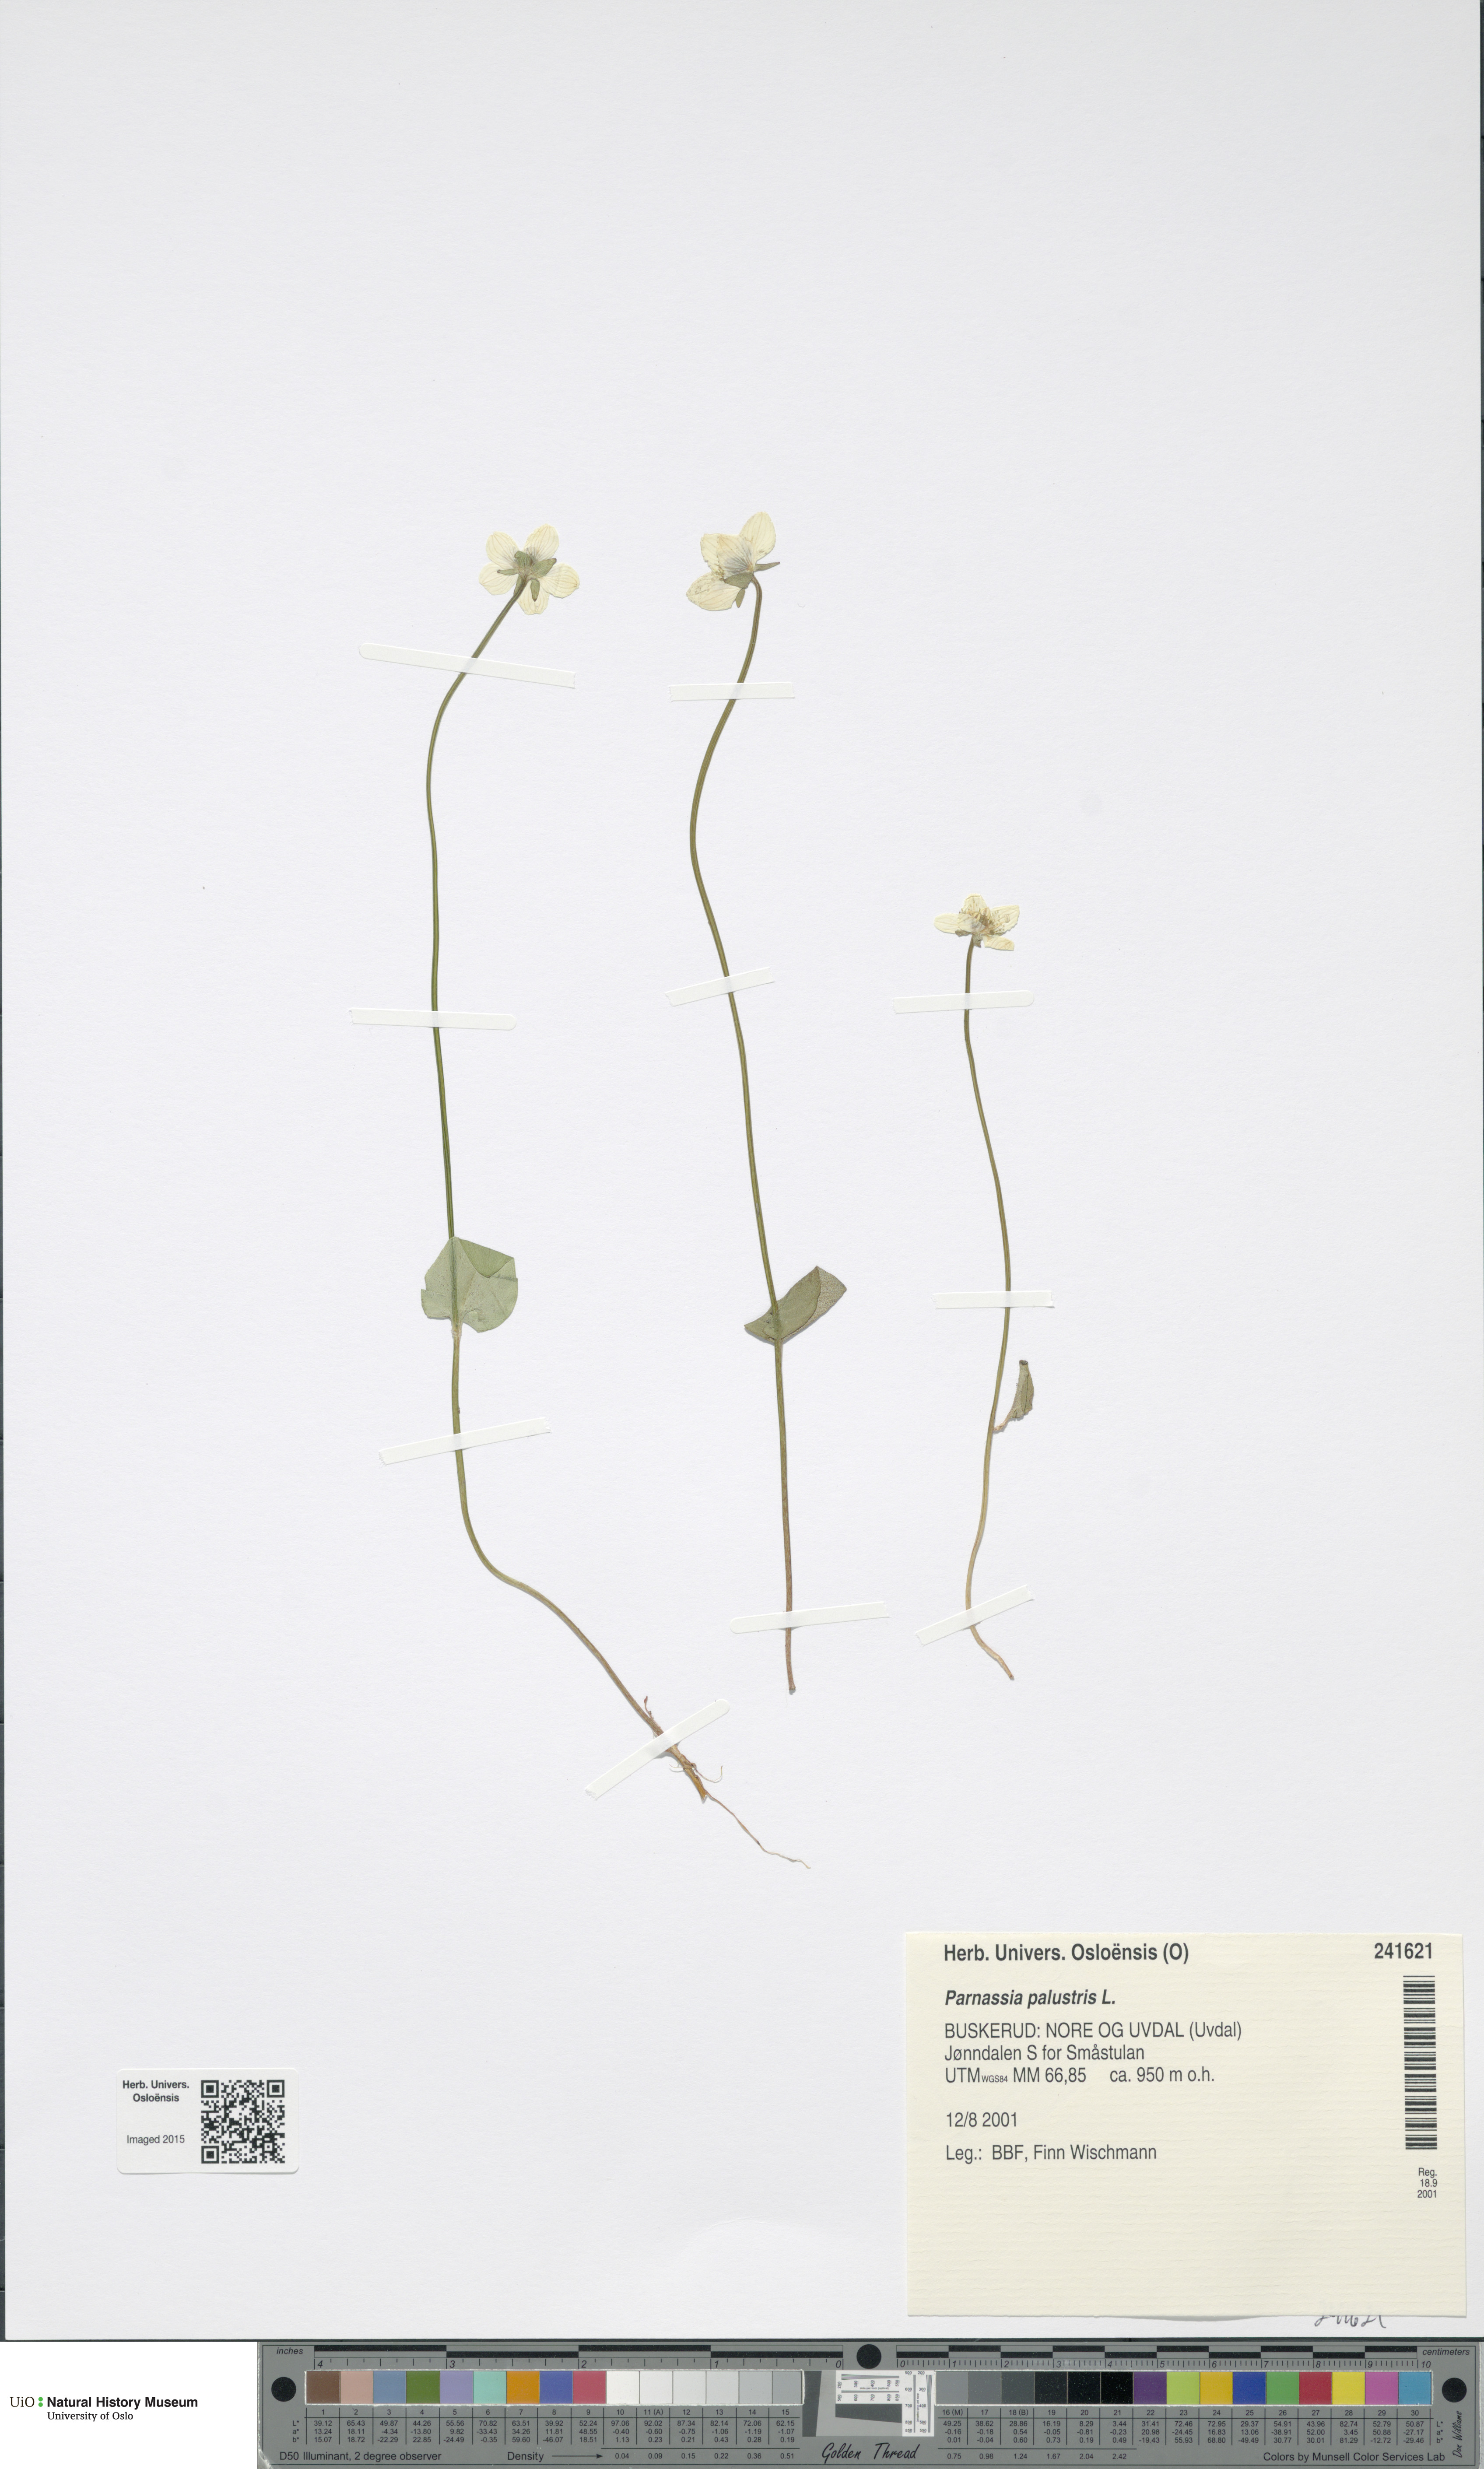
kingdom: Plantae
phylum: Tracheophyta
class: Magnoliopsida
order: Celastrales
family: Parnassiaceae
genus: Parnassia
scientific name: Parnassia palustris
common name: Grass-of-parnassus
